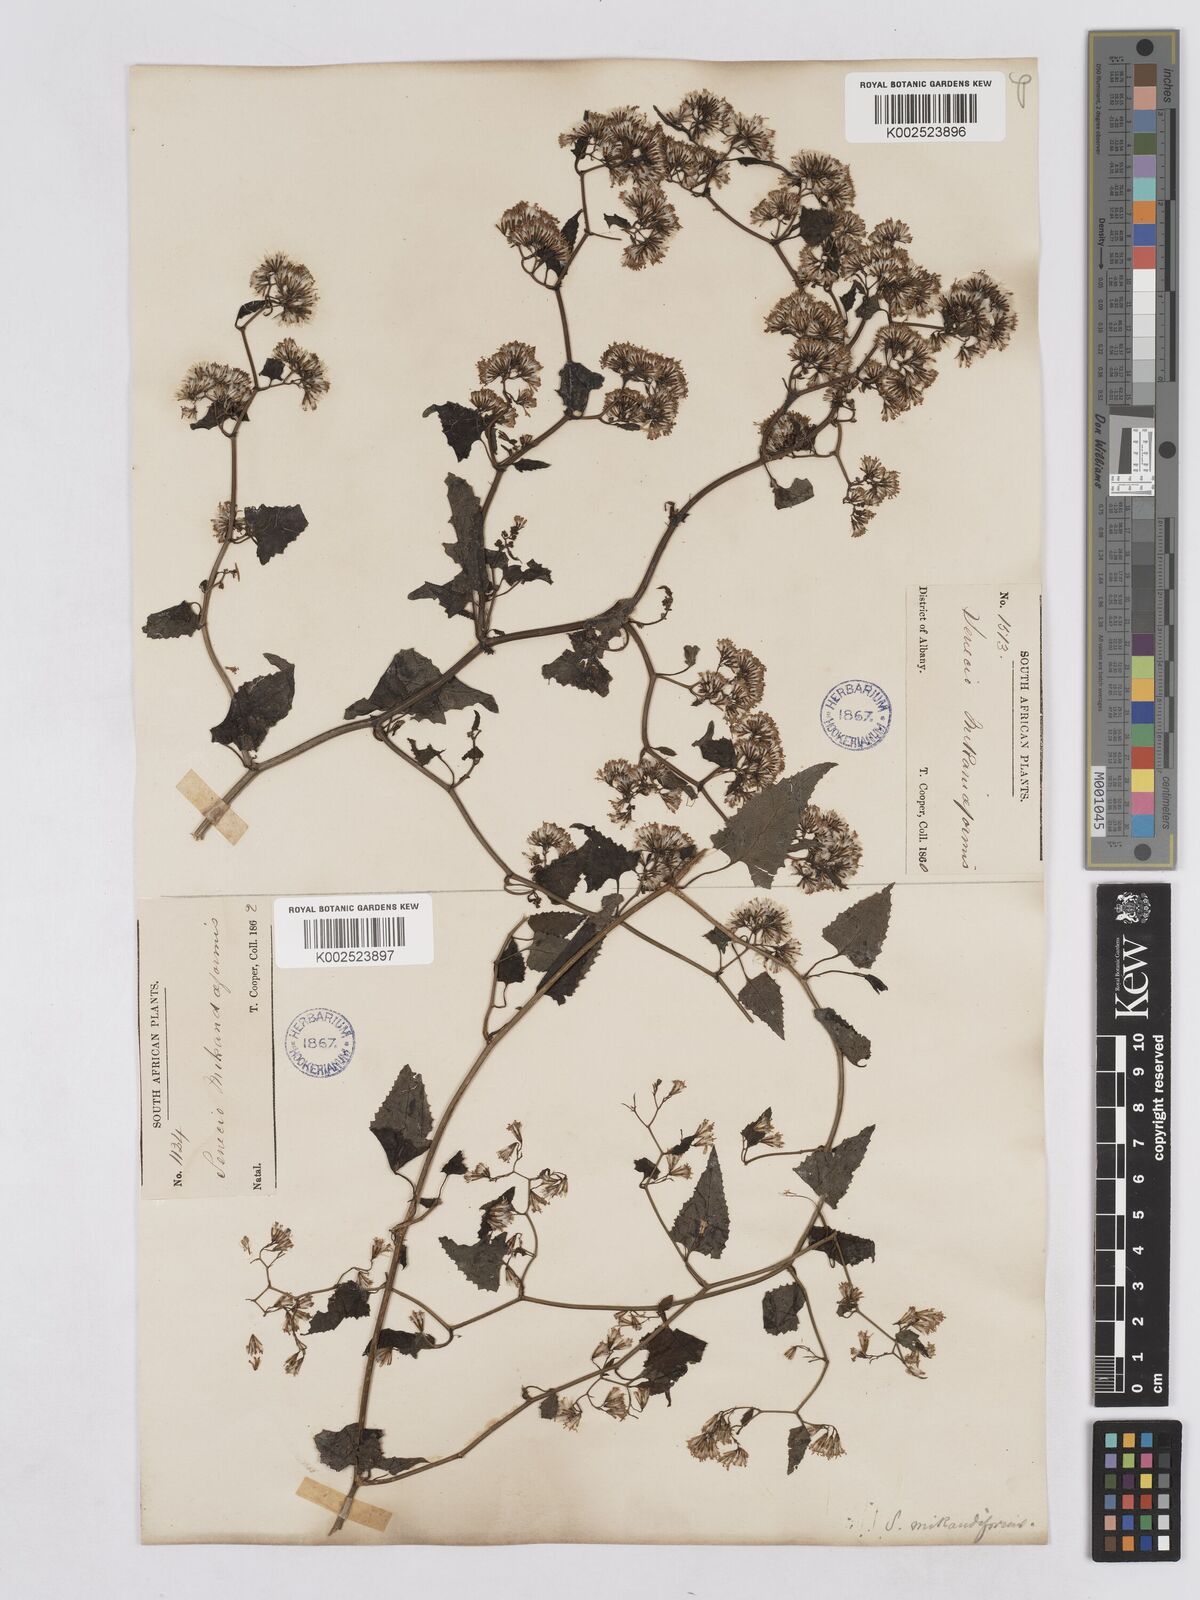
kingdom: Plantae
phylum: Tracheophyta
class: Magnoliopsida
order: Asterales
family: Asteraceae
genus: Senecio
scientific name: Senecio deltoideus
